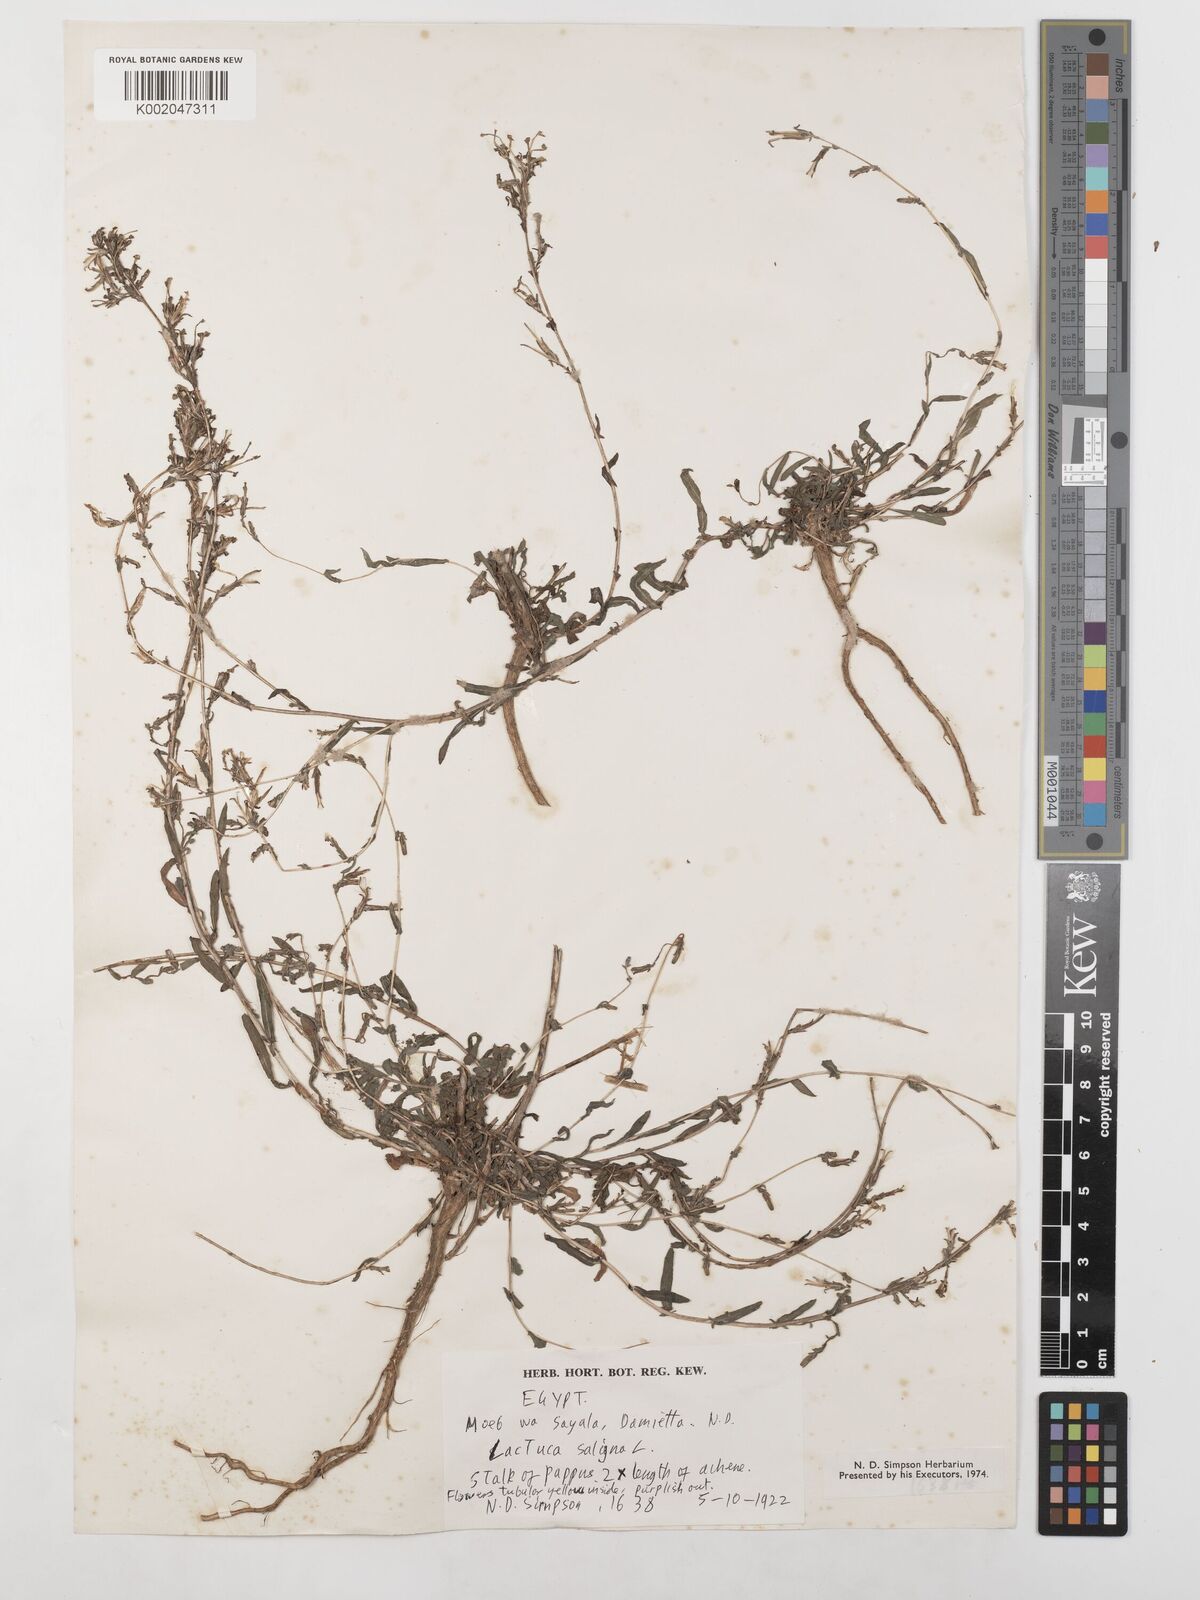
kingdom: Plantae
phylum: Tracheophyta
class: Magnoliopsida
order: Asterales
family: Asteraceae
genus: Lactuca
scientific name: Lactuca saligna
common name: Wild lettuce
